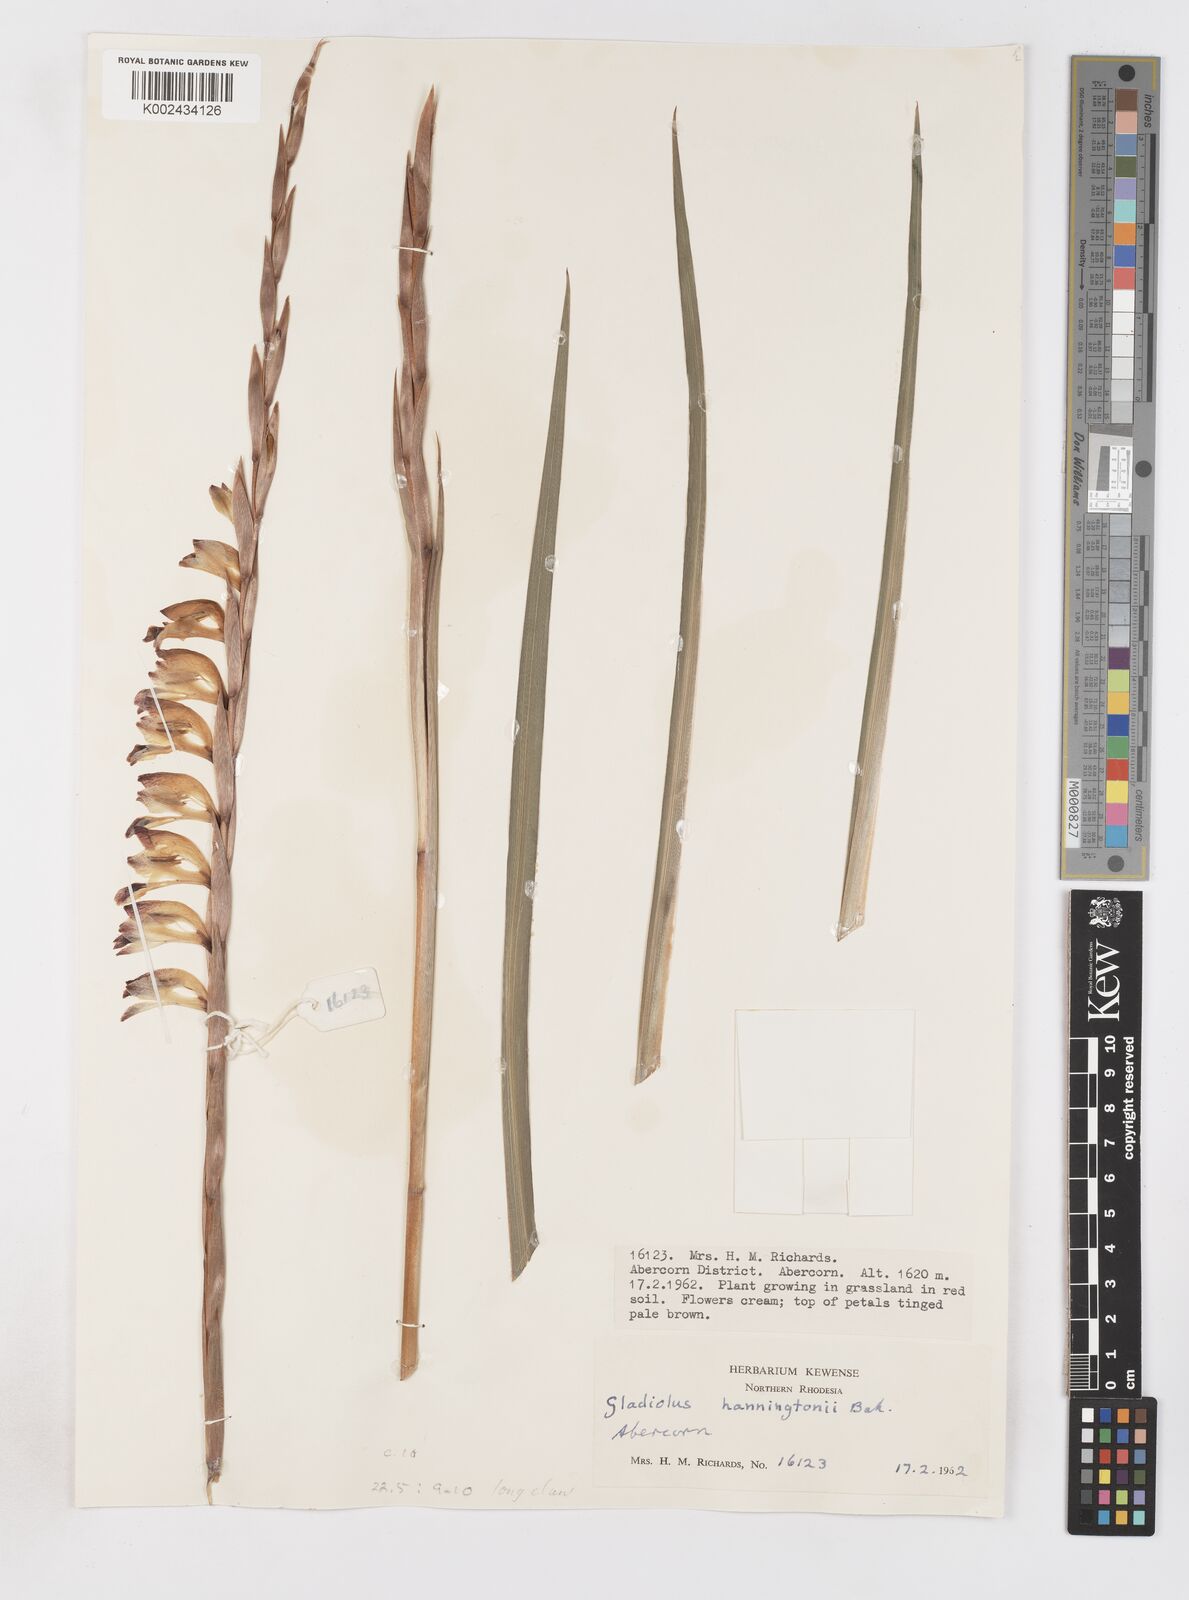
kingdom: Plantae
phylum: Tracheophyta
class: Liliopsida
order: Asparagales
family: Iridaceae
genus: Gladiolus
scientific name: Gladiolus gregarius
